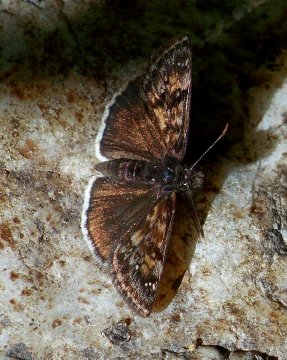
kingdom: Animalia
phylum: Arthropoda
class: Insecta
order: Lepidoptera
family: Hesperiidae
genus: Erynnis
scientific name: Erynnis pacuvius
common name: Pacuvius Duskywing
